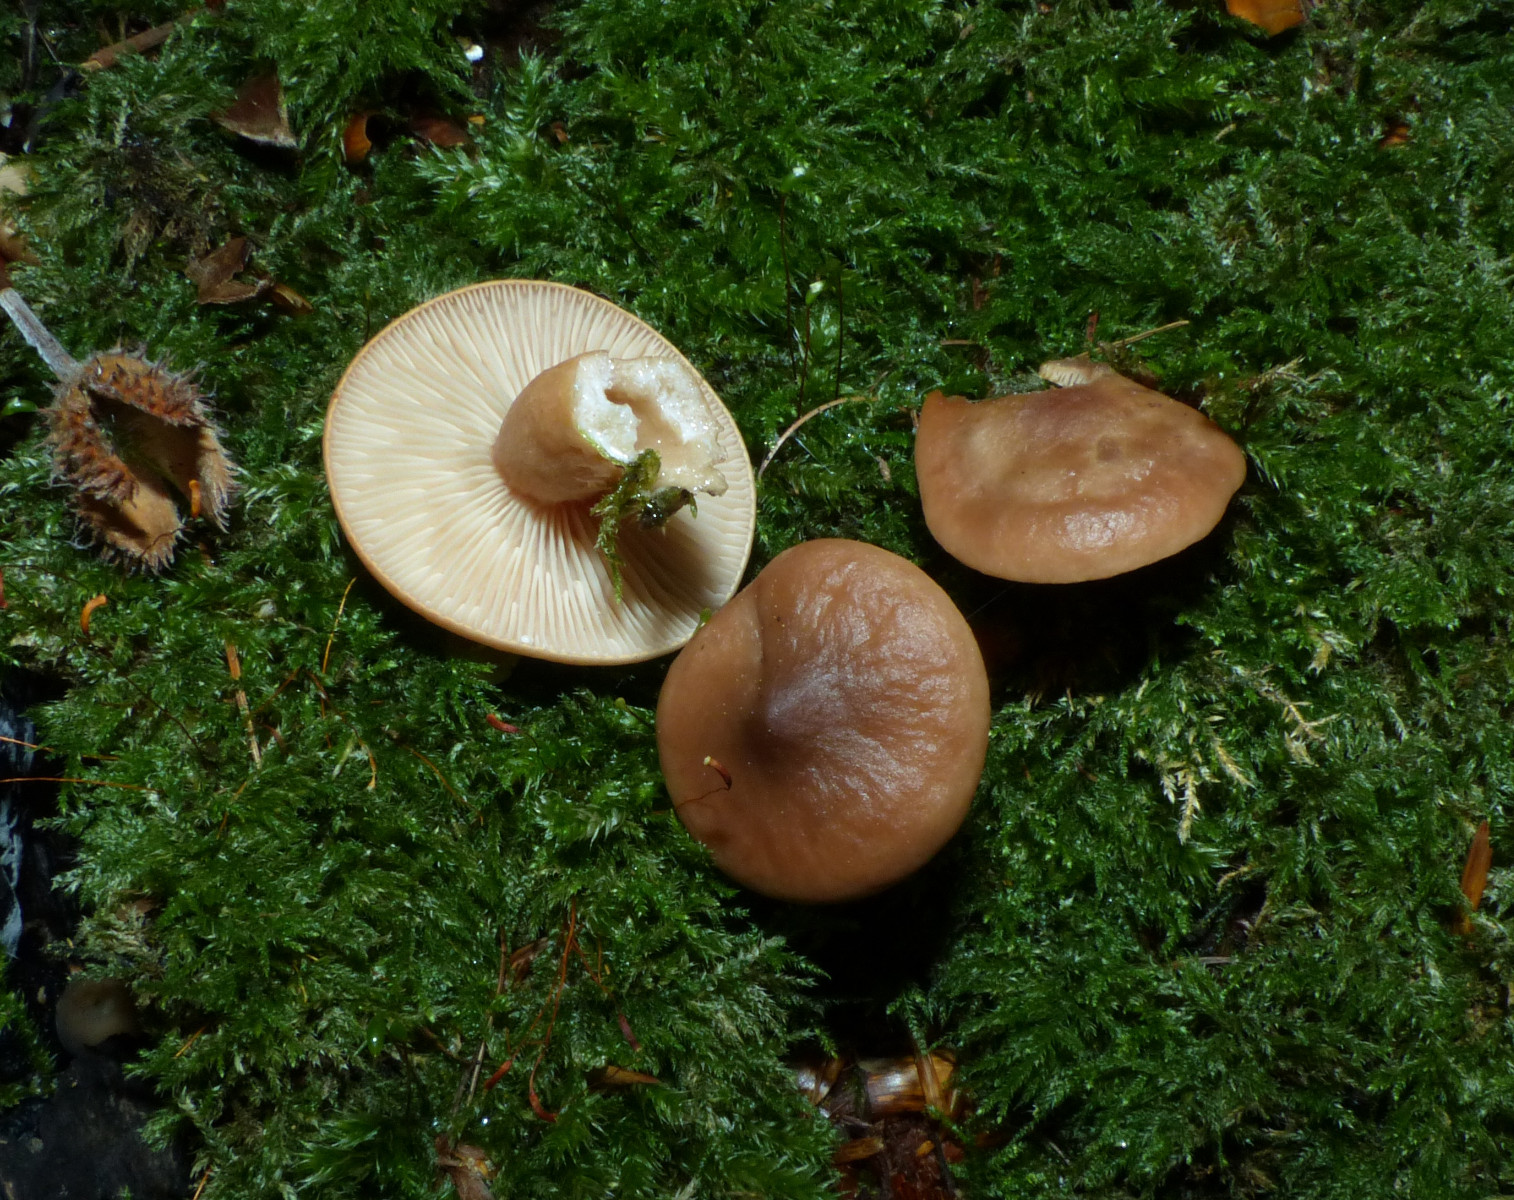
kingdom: Fungi
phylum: Basidiomycota
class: Agaricomycetes
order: Russulales
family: Russulaceae
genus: Lactarius
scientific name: Lactarius subdulcis
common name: sødlig mælkehat
